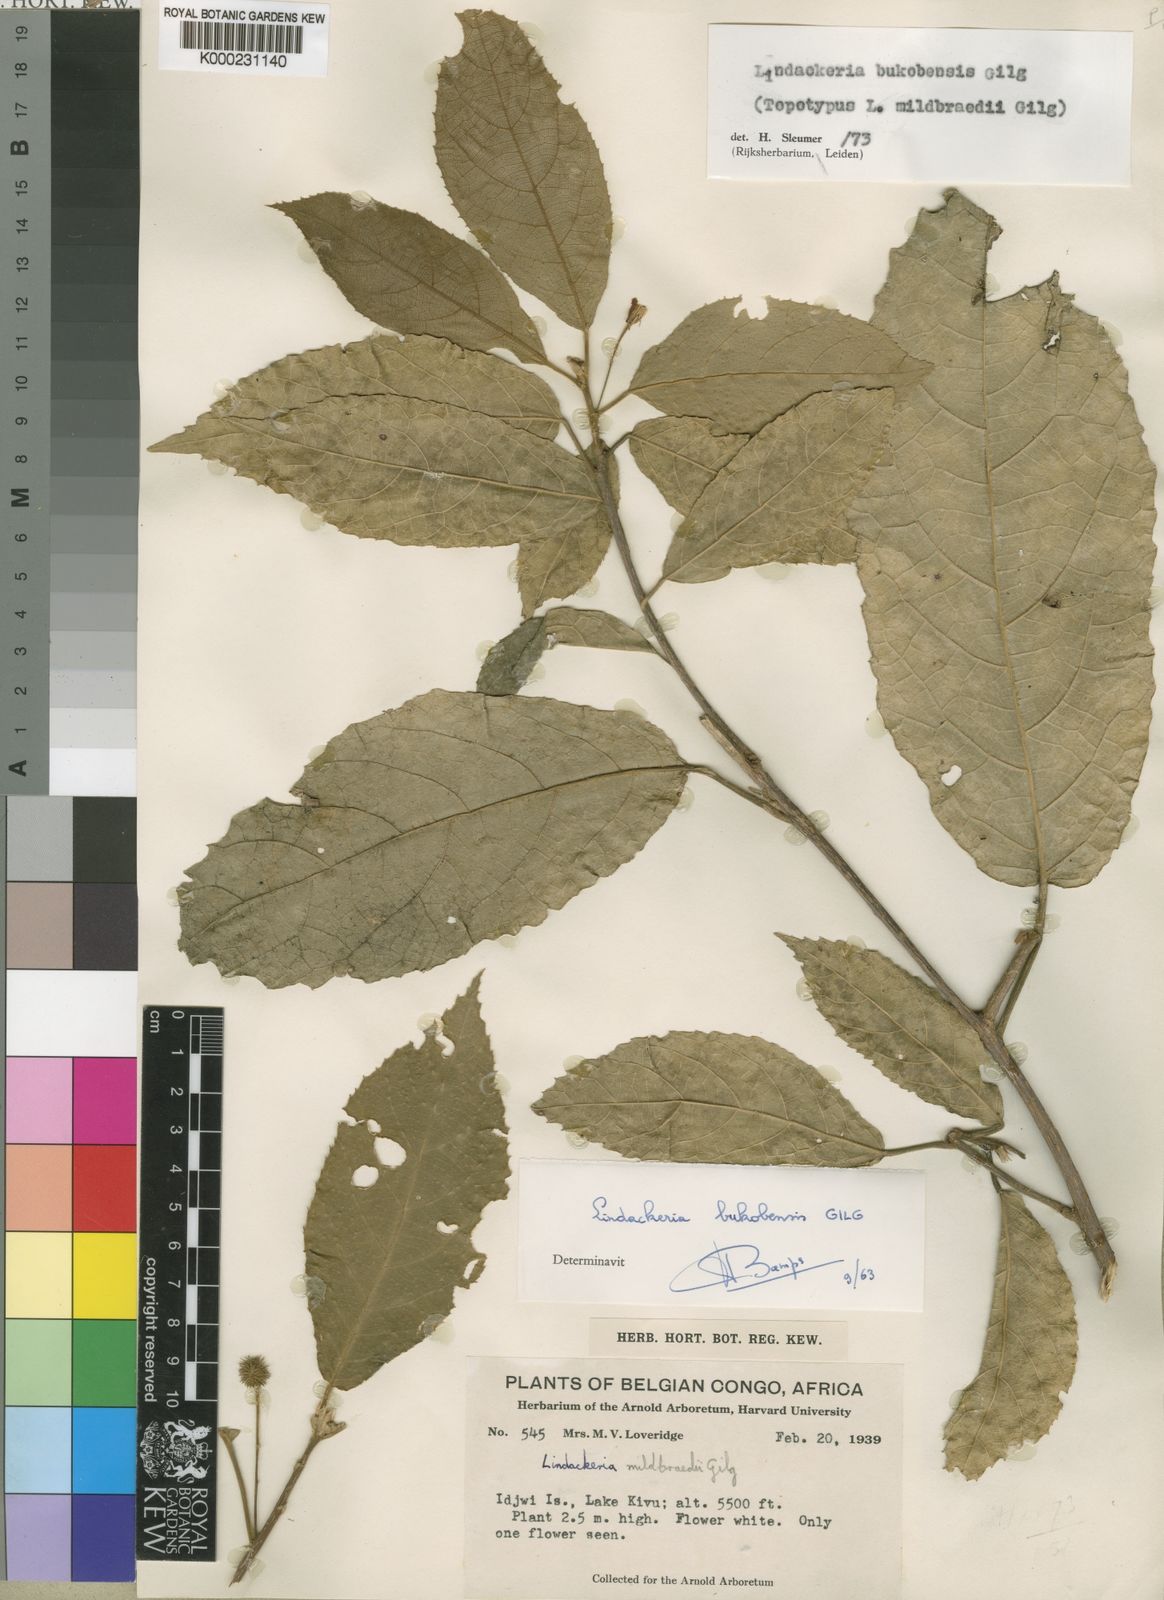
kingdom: Plantae
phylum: Tracheophyta
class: Magnoliopsida
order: Malpighiales
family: Achariaceae
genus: Lindackeria
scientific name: Lindackeria bukobensis
